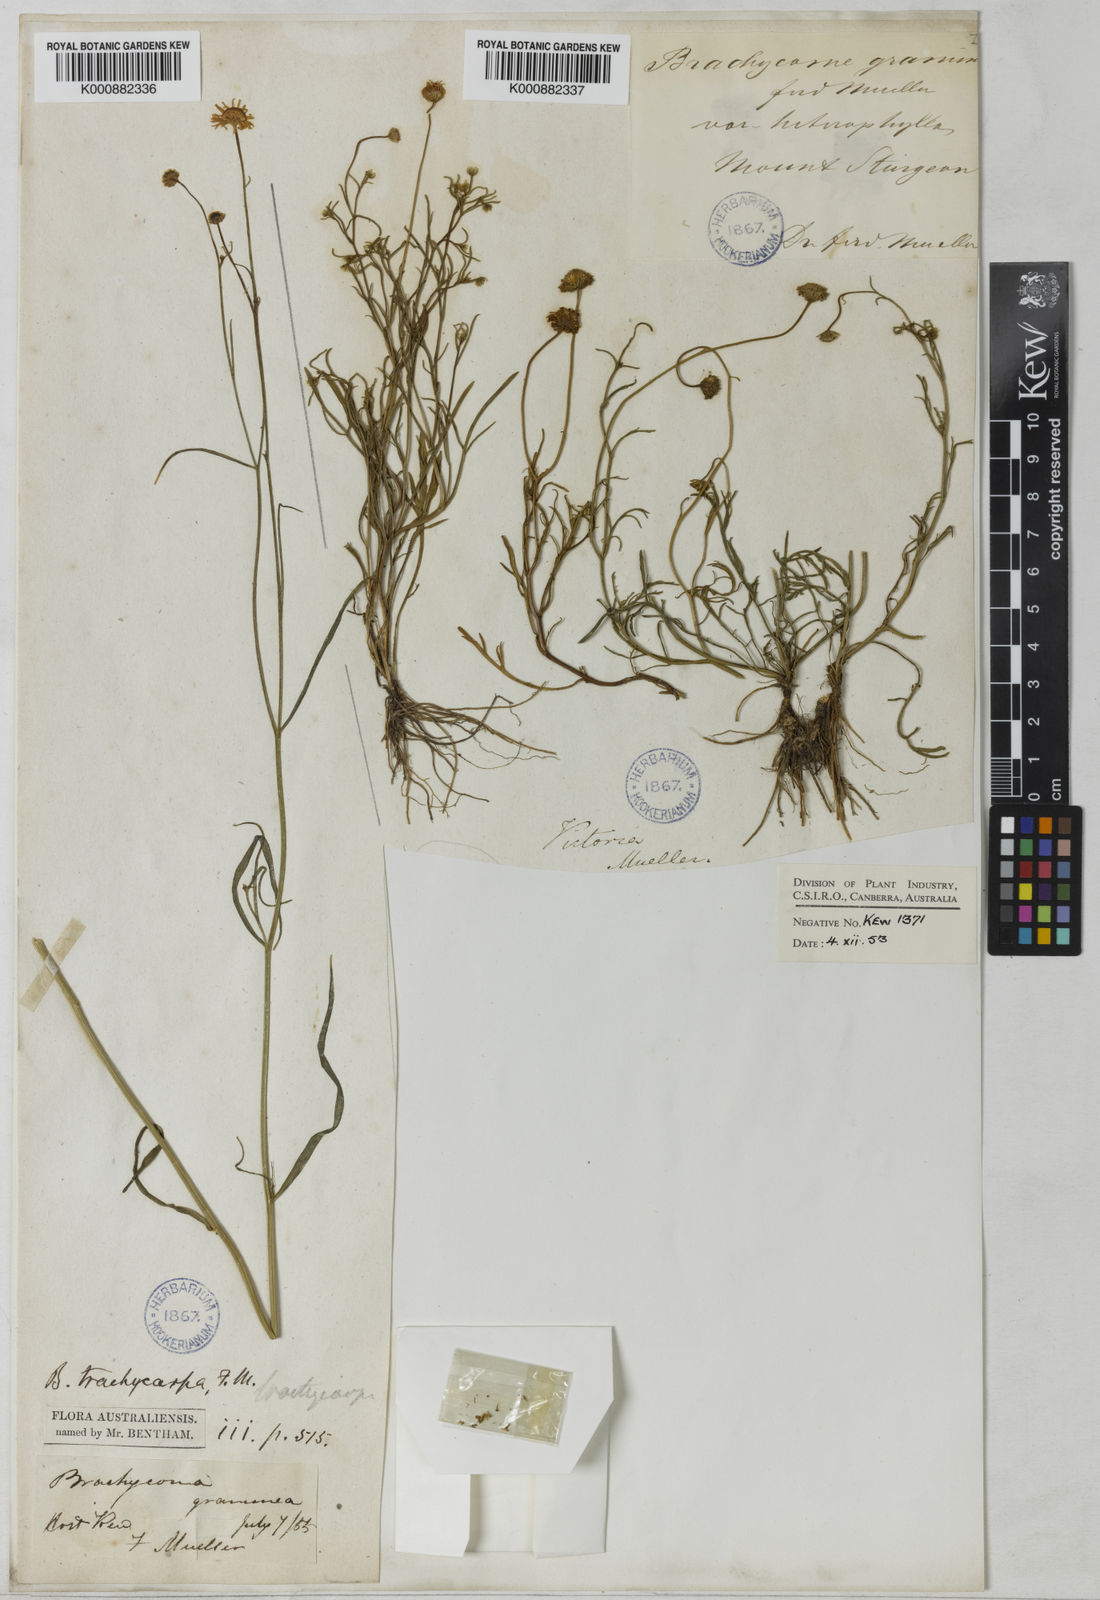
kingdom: Plantae
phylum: Tracheophyta
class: Magnoliopsida
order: Asterales
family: Asteraceae
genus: Brachyscome
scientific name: Brachyscome parvula
